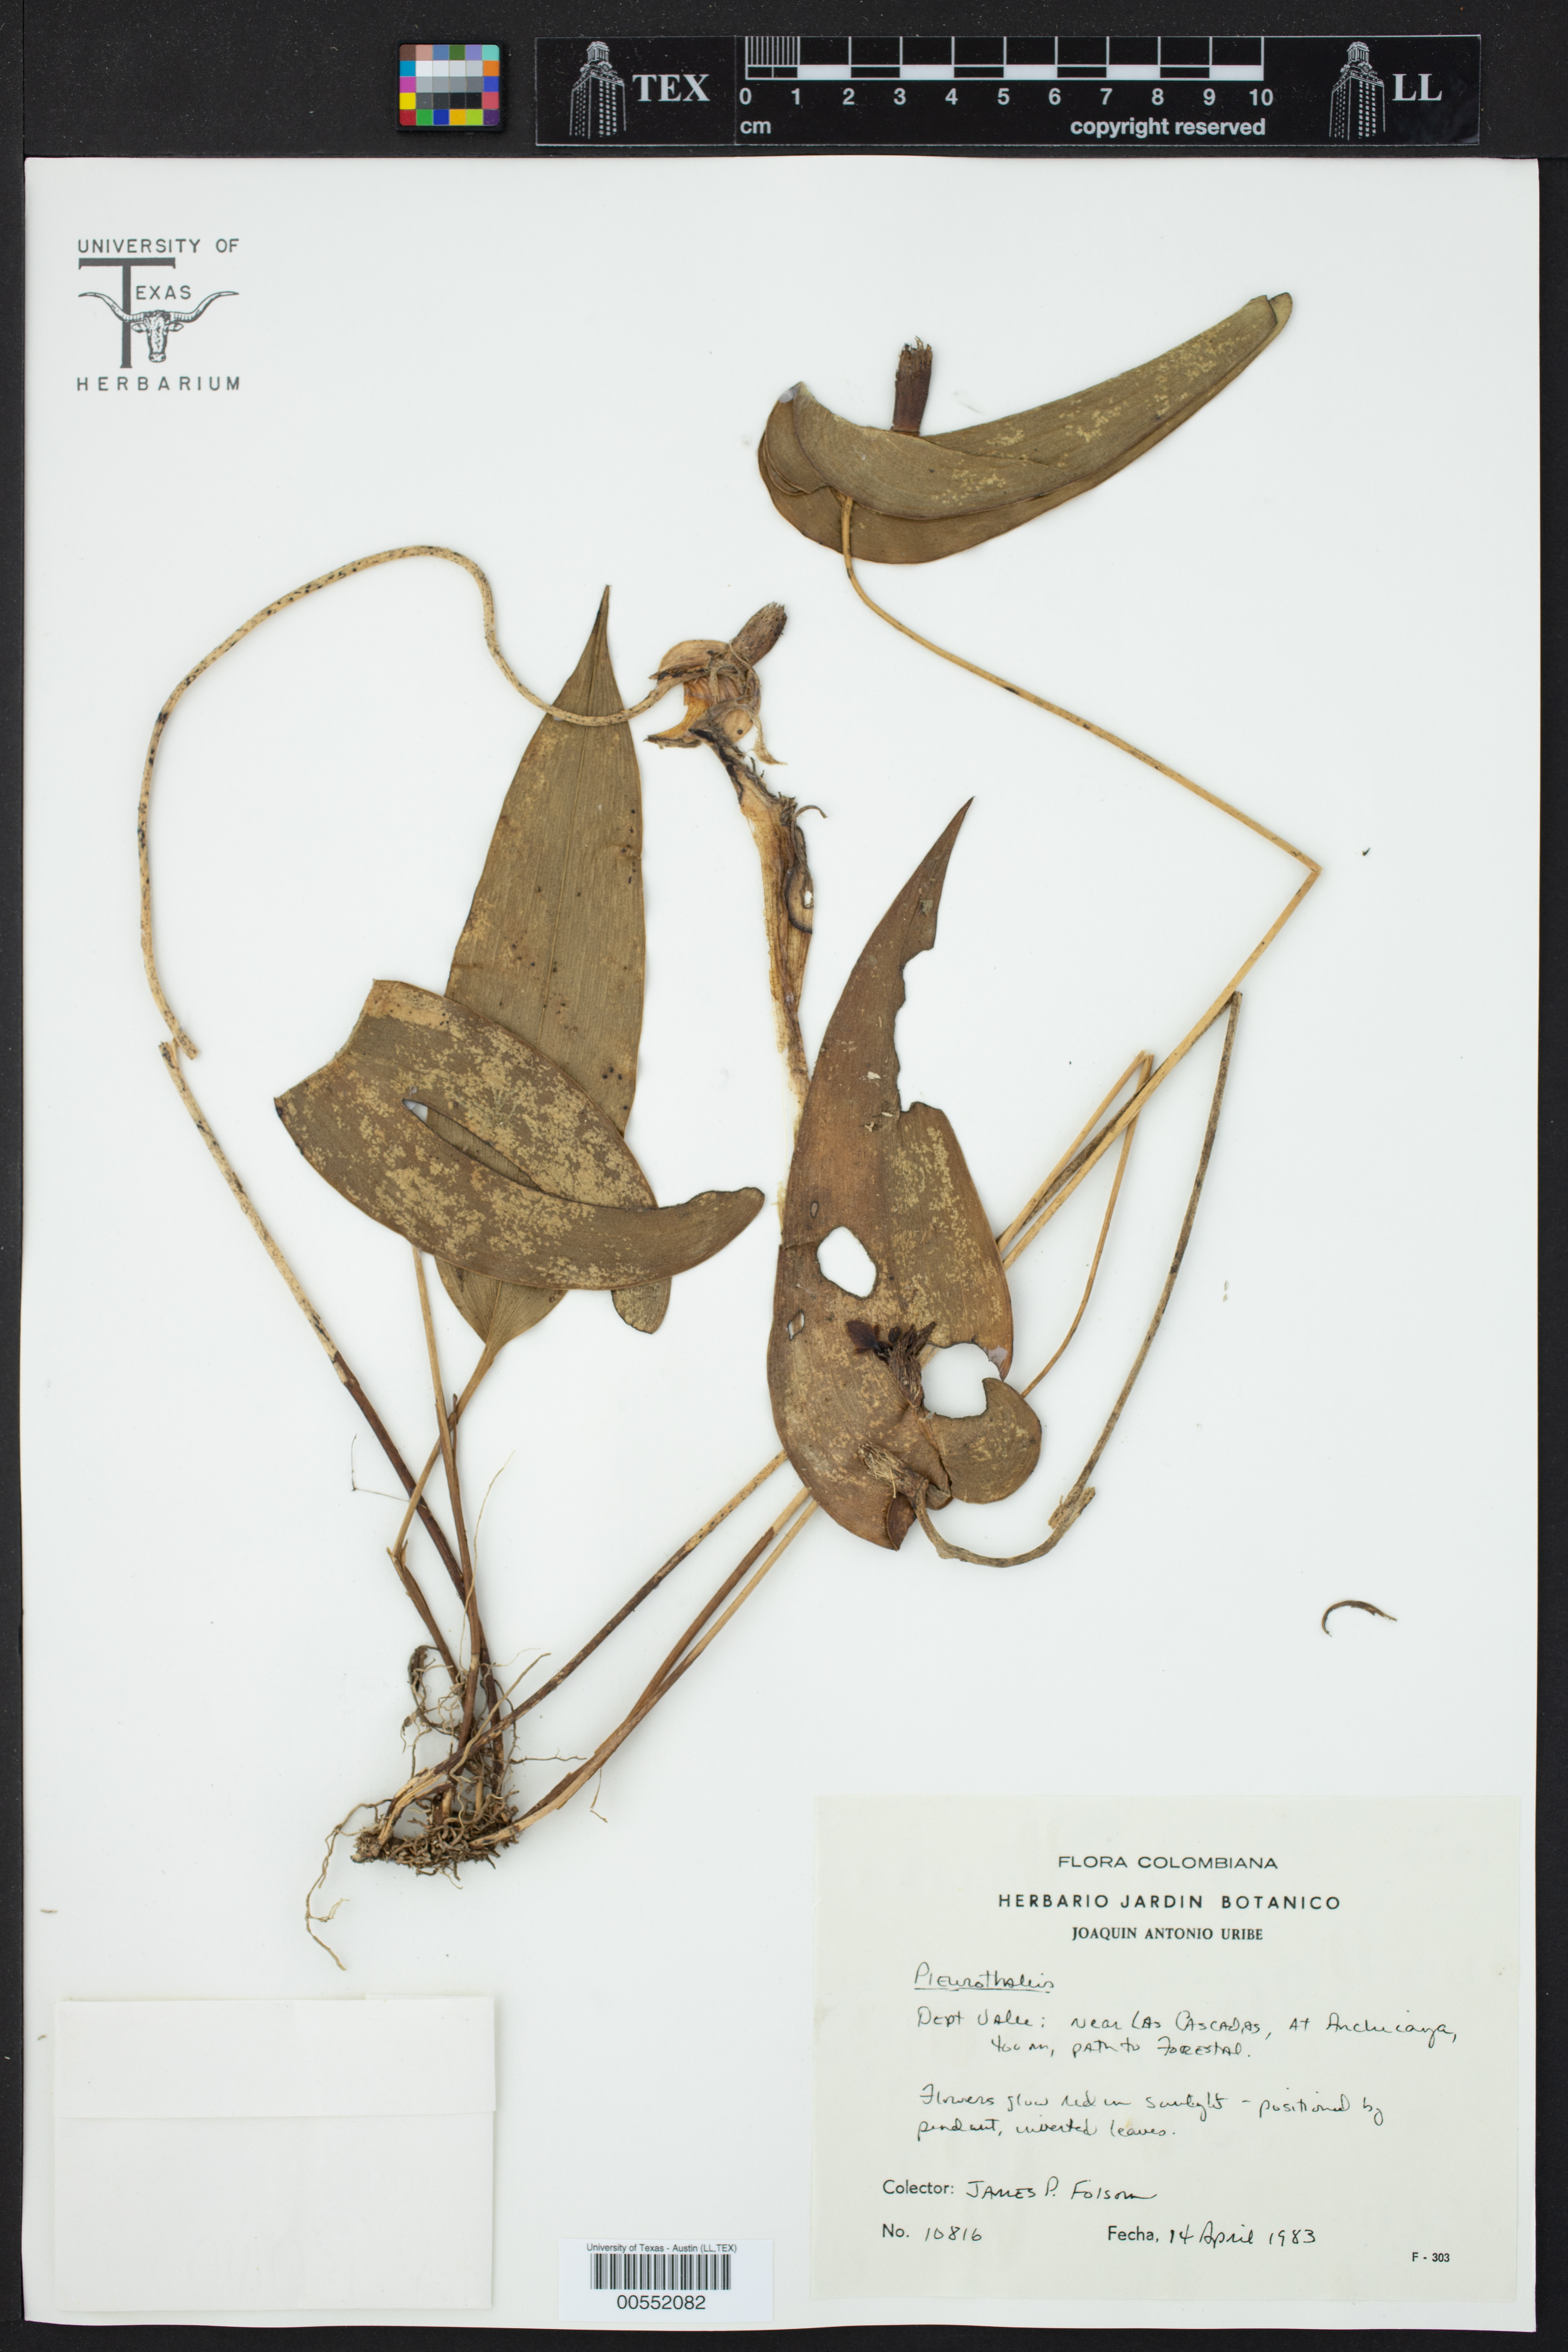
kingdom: Plantae
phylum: Tracheophyta
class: Liliopsida
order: Asparagales
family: Orchidaceae
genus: Pleurothallis
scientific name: Pleurothallis
